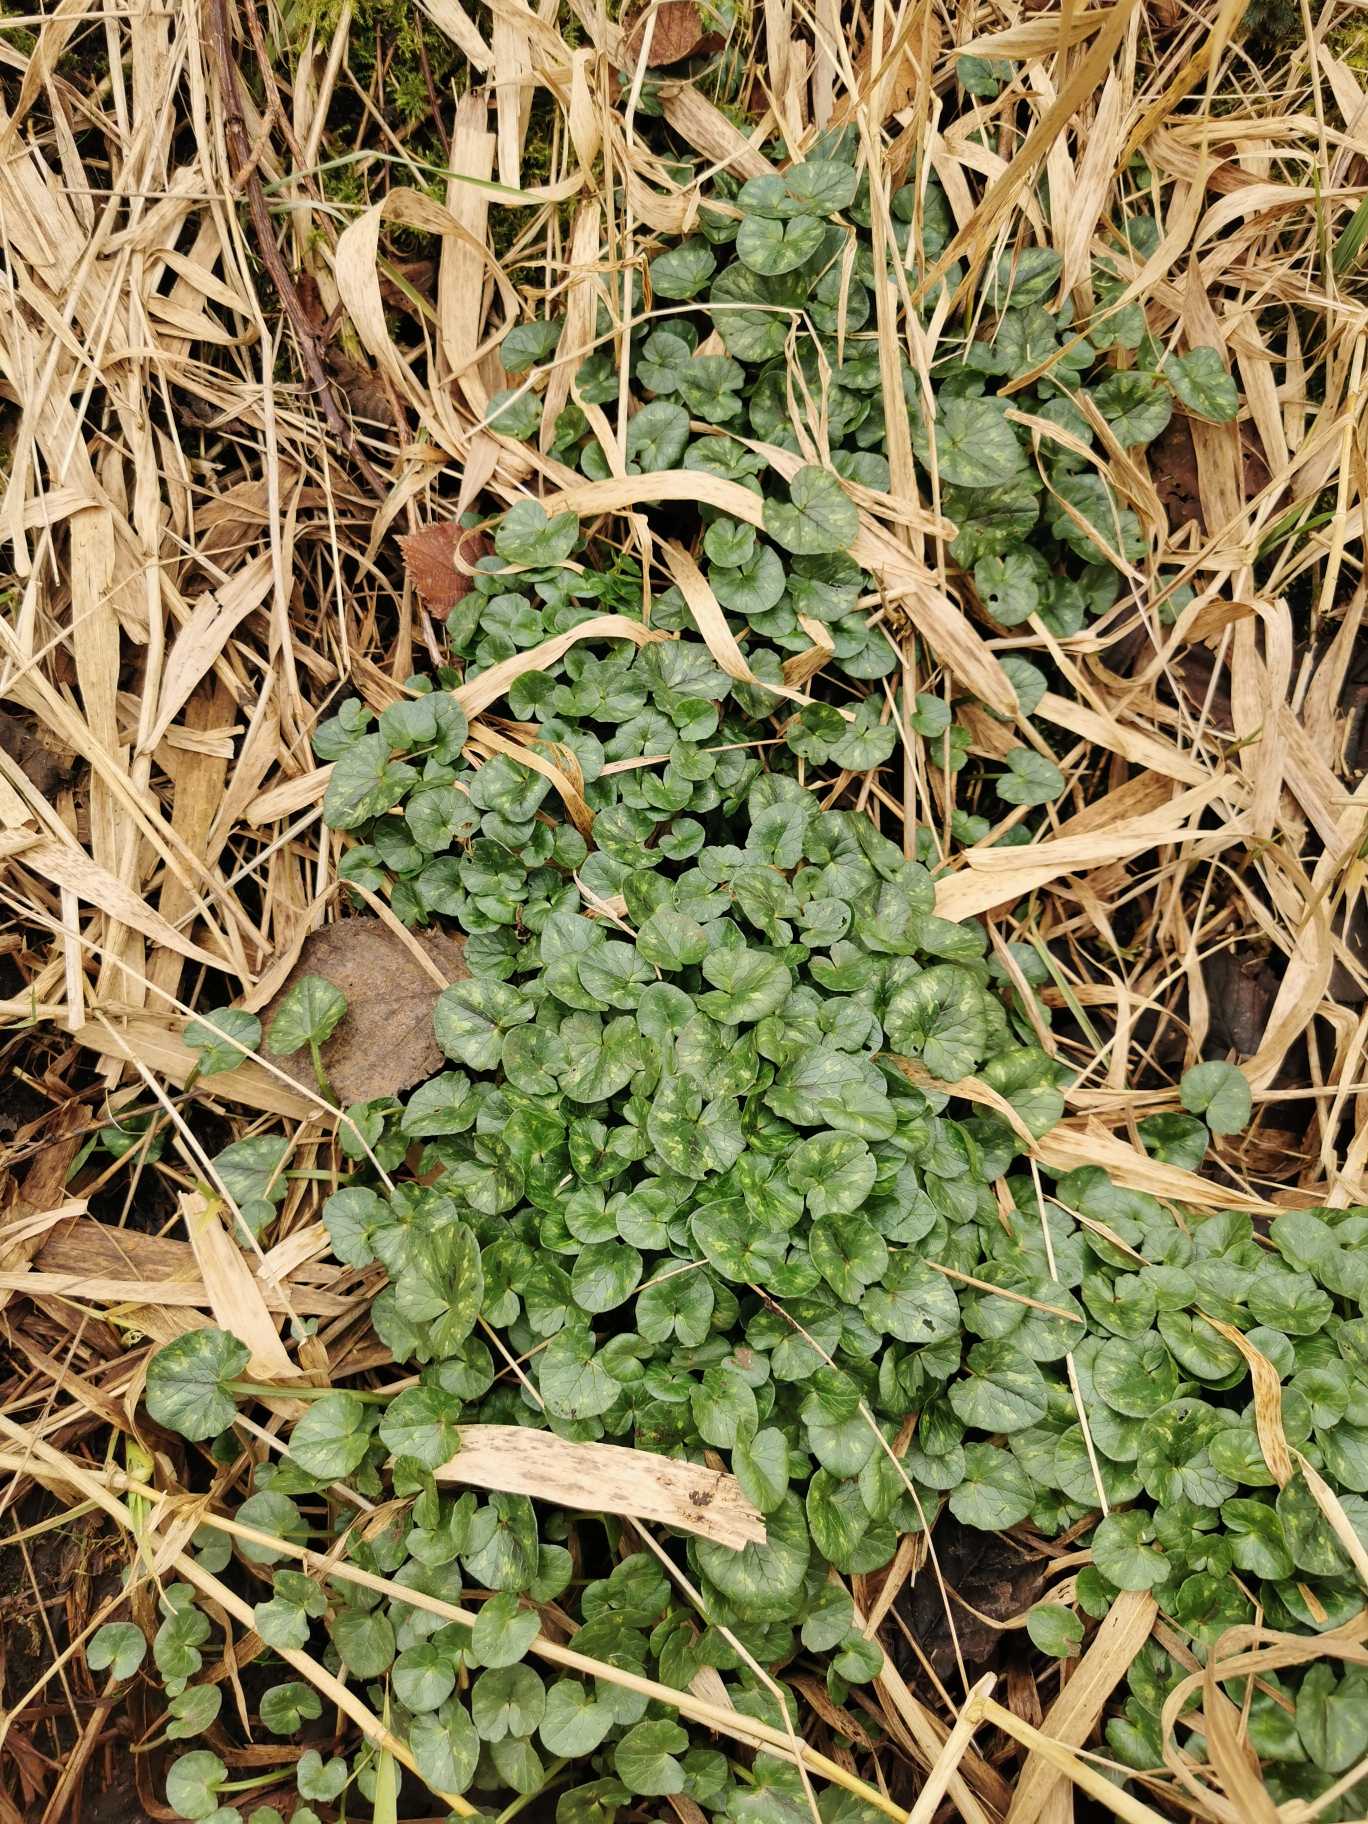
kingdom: Plantae
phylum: Tracheophyta
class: Magnoliopsida
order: Ranunculales
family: Ranunculaceae
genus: Ficaria
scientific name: Ficaria verna
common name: Vorterod
